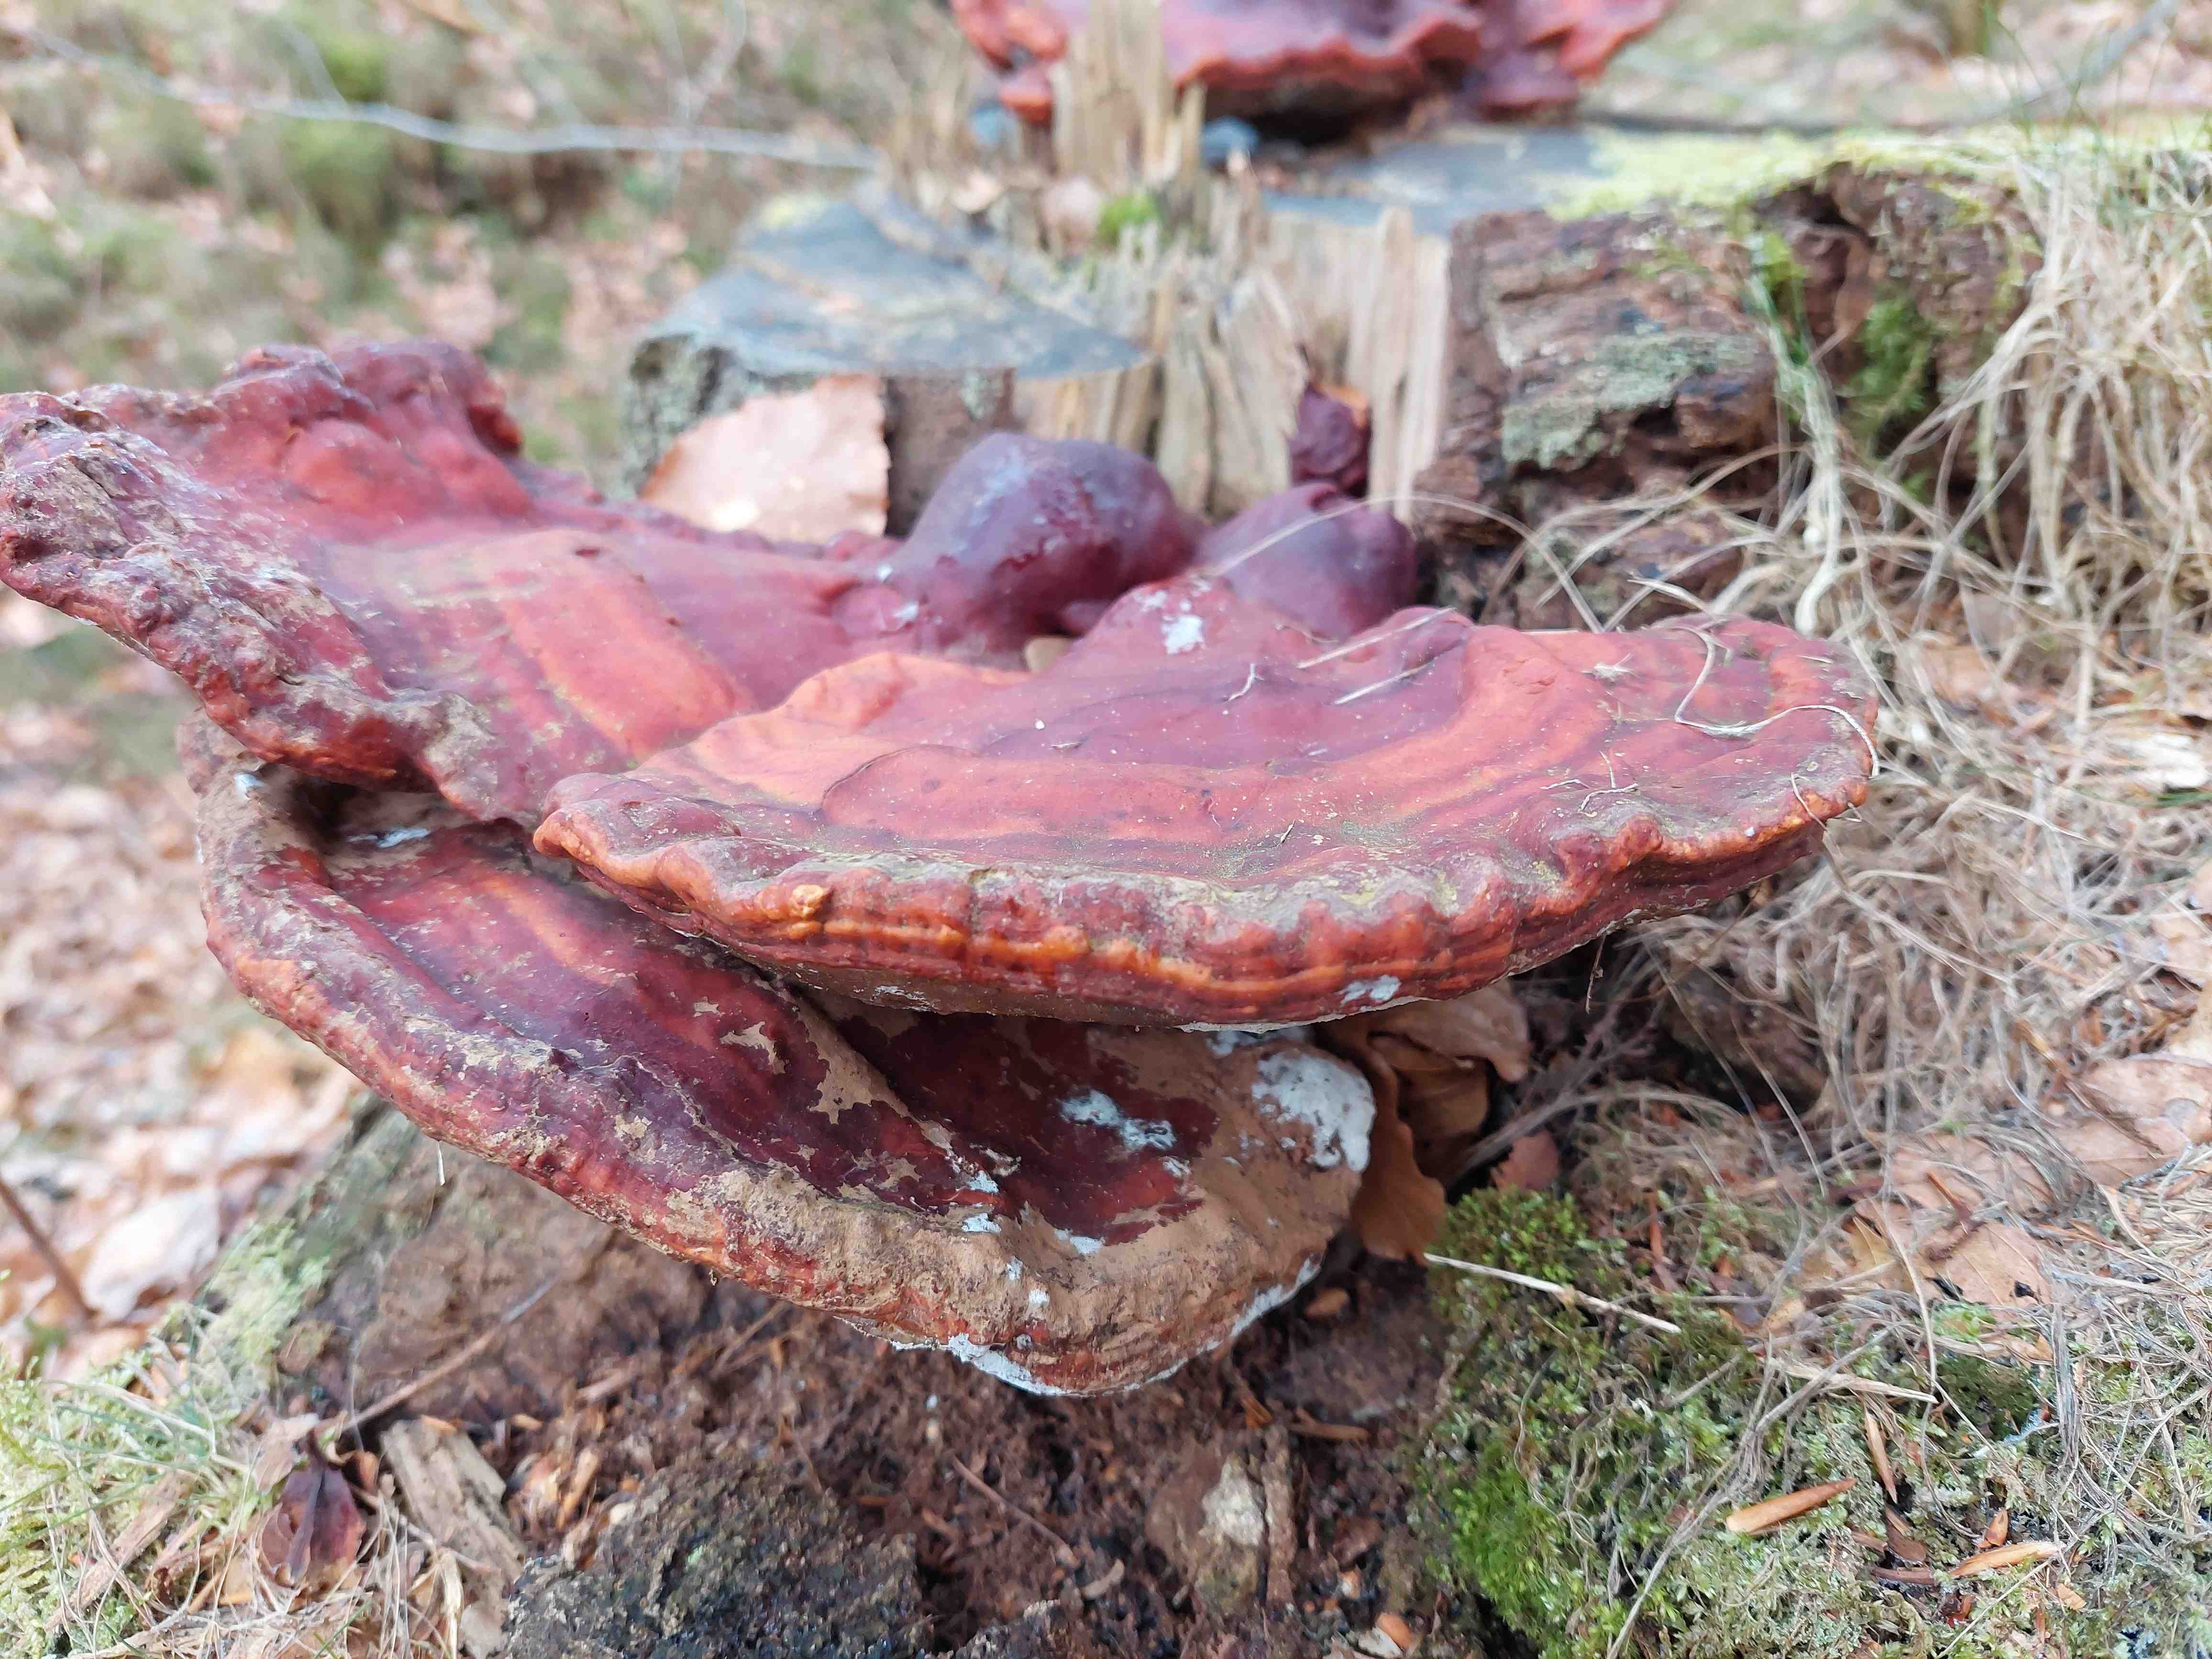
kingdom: Fungi
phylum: Basidiomycota
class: Agaricomycetes
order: Polyporales
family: Polyporaceae
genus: Ganoderma
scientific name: Ganoderma lucidum
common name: skinnende lakporesvamp
